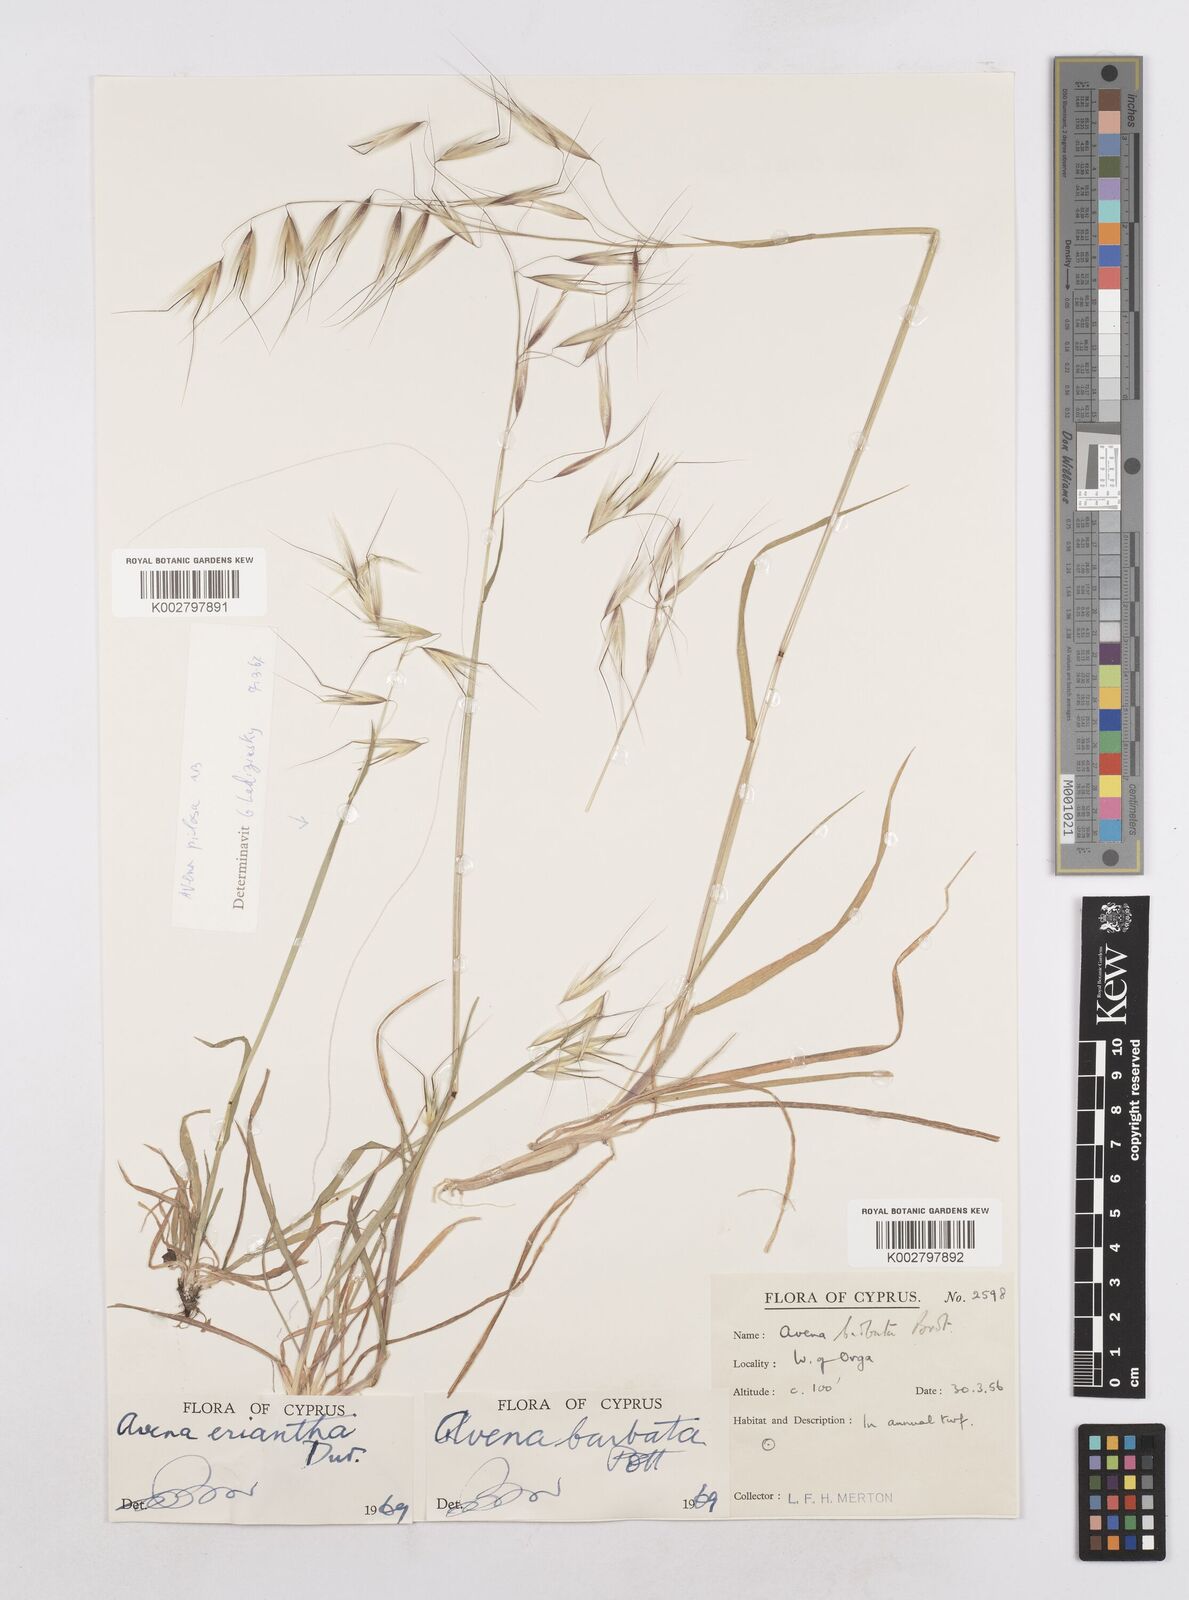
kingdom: Plantae
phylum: Tracheophyta
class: Liliopsida
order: Poales
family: Poaceae
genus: Avena
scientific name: Avena eriantha
